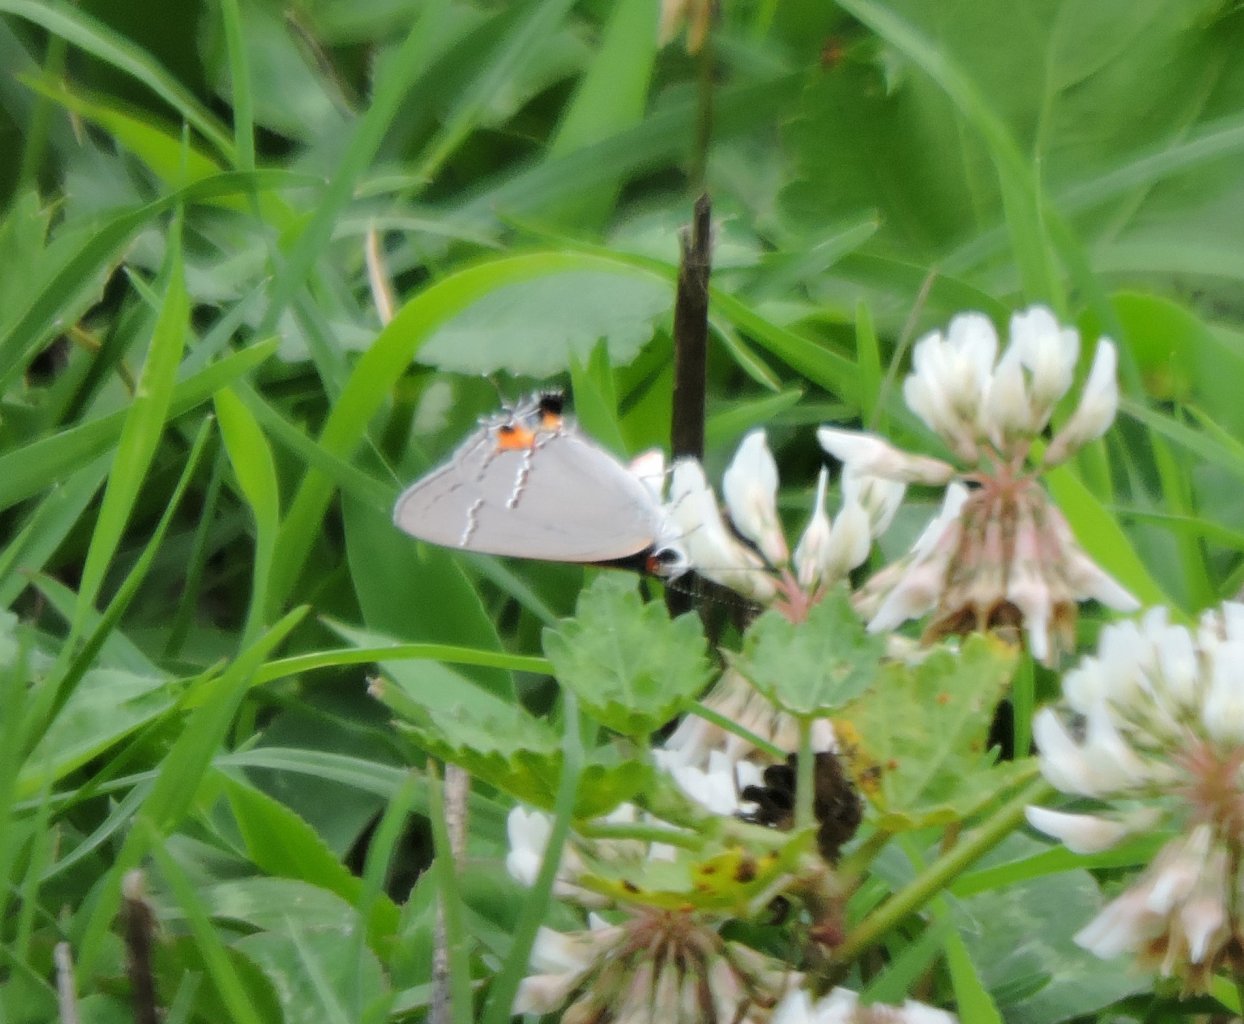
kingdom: Animalia
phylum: Arthropoda
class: Insecta
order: Lepidoptera
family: Lycaenidae
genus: Strymon
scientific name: Strymon melinus
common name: Gray Hairstreak
